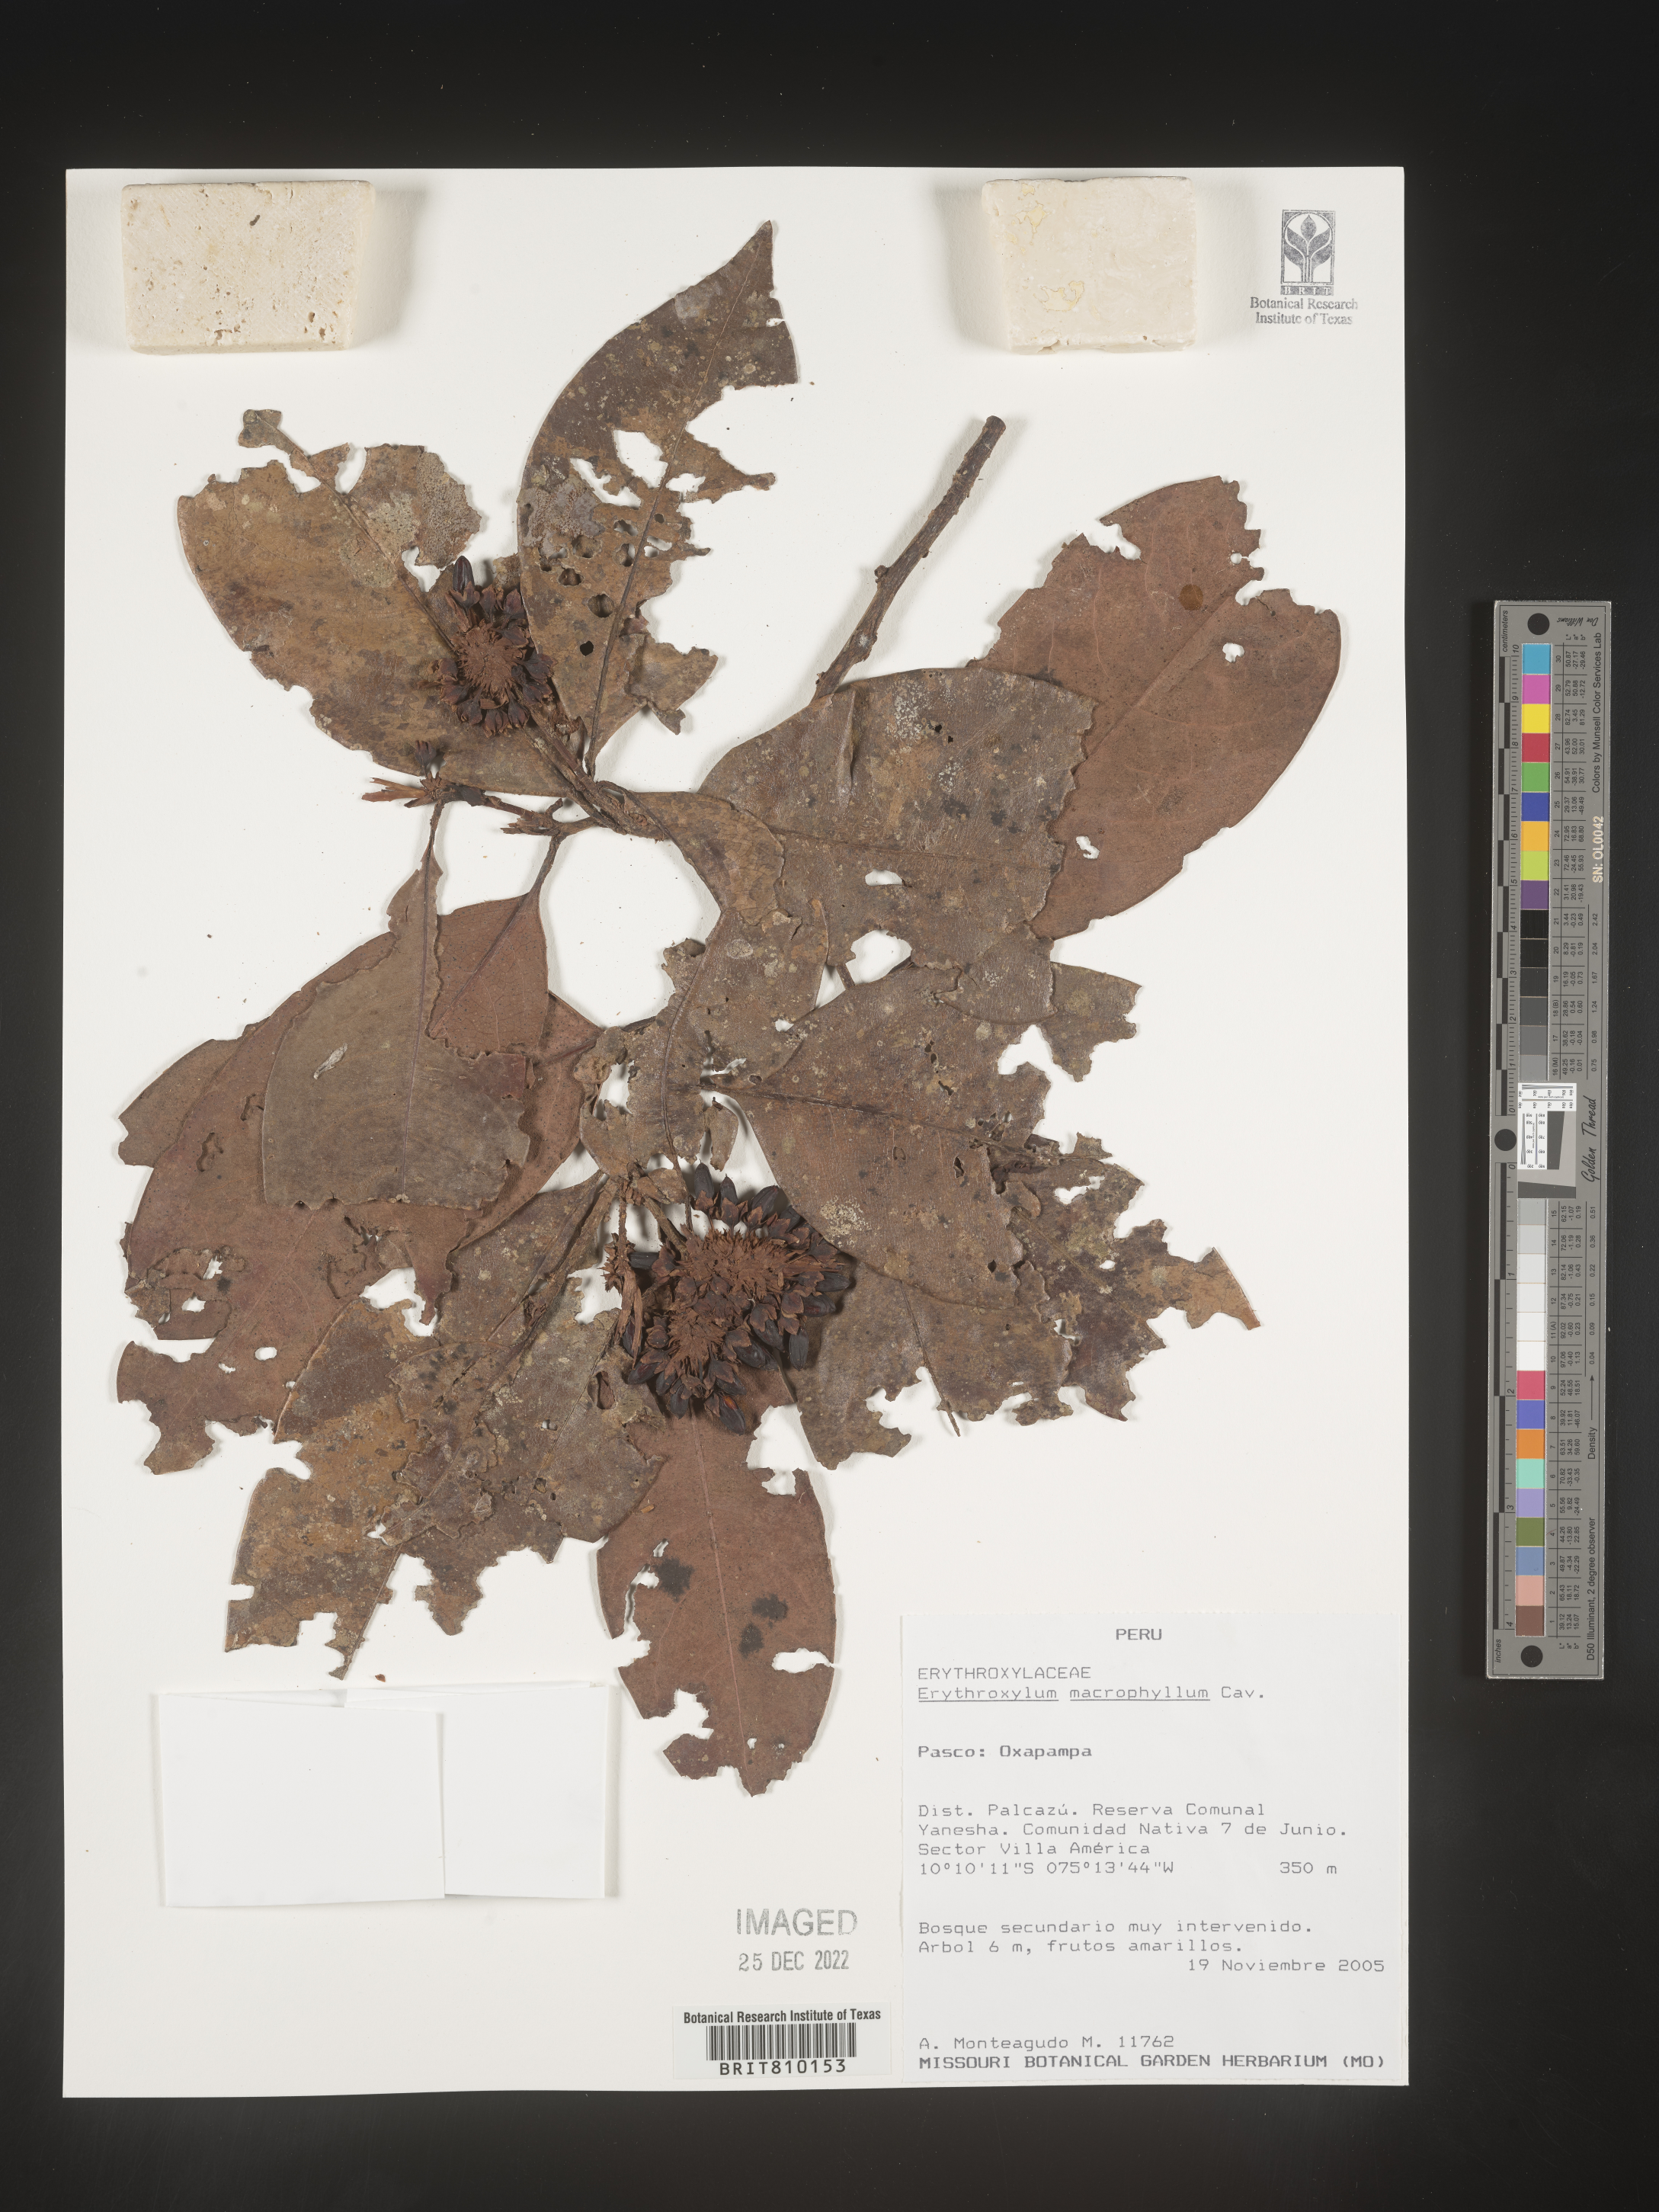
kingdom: Plantae
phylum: Tracheophyta
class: Magnoliopsida
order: Malpighiales
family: Erythroxylaceae
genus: Erythroxylum
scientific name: Erythroxylum
